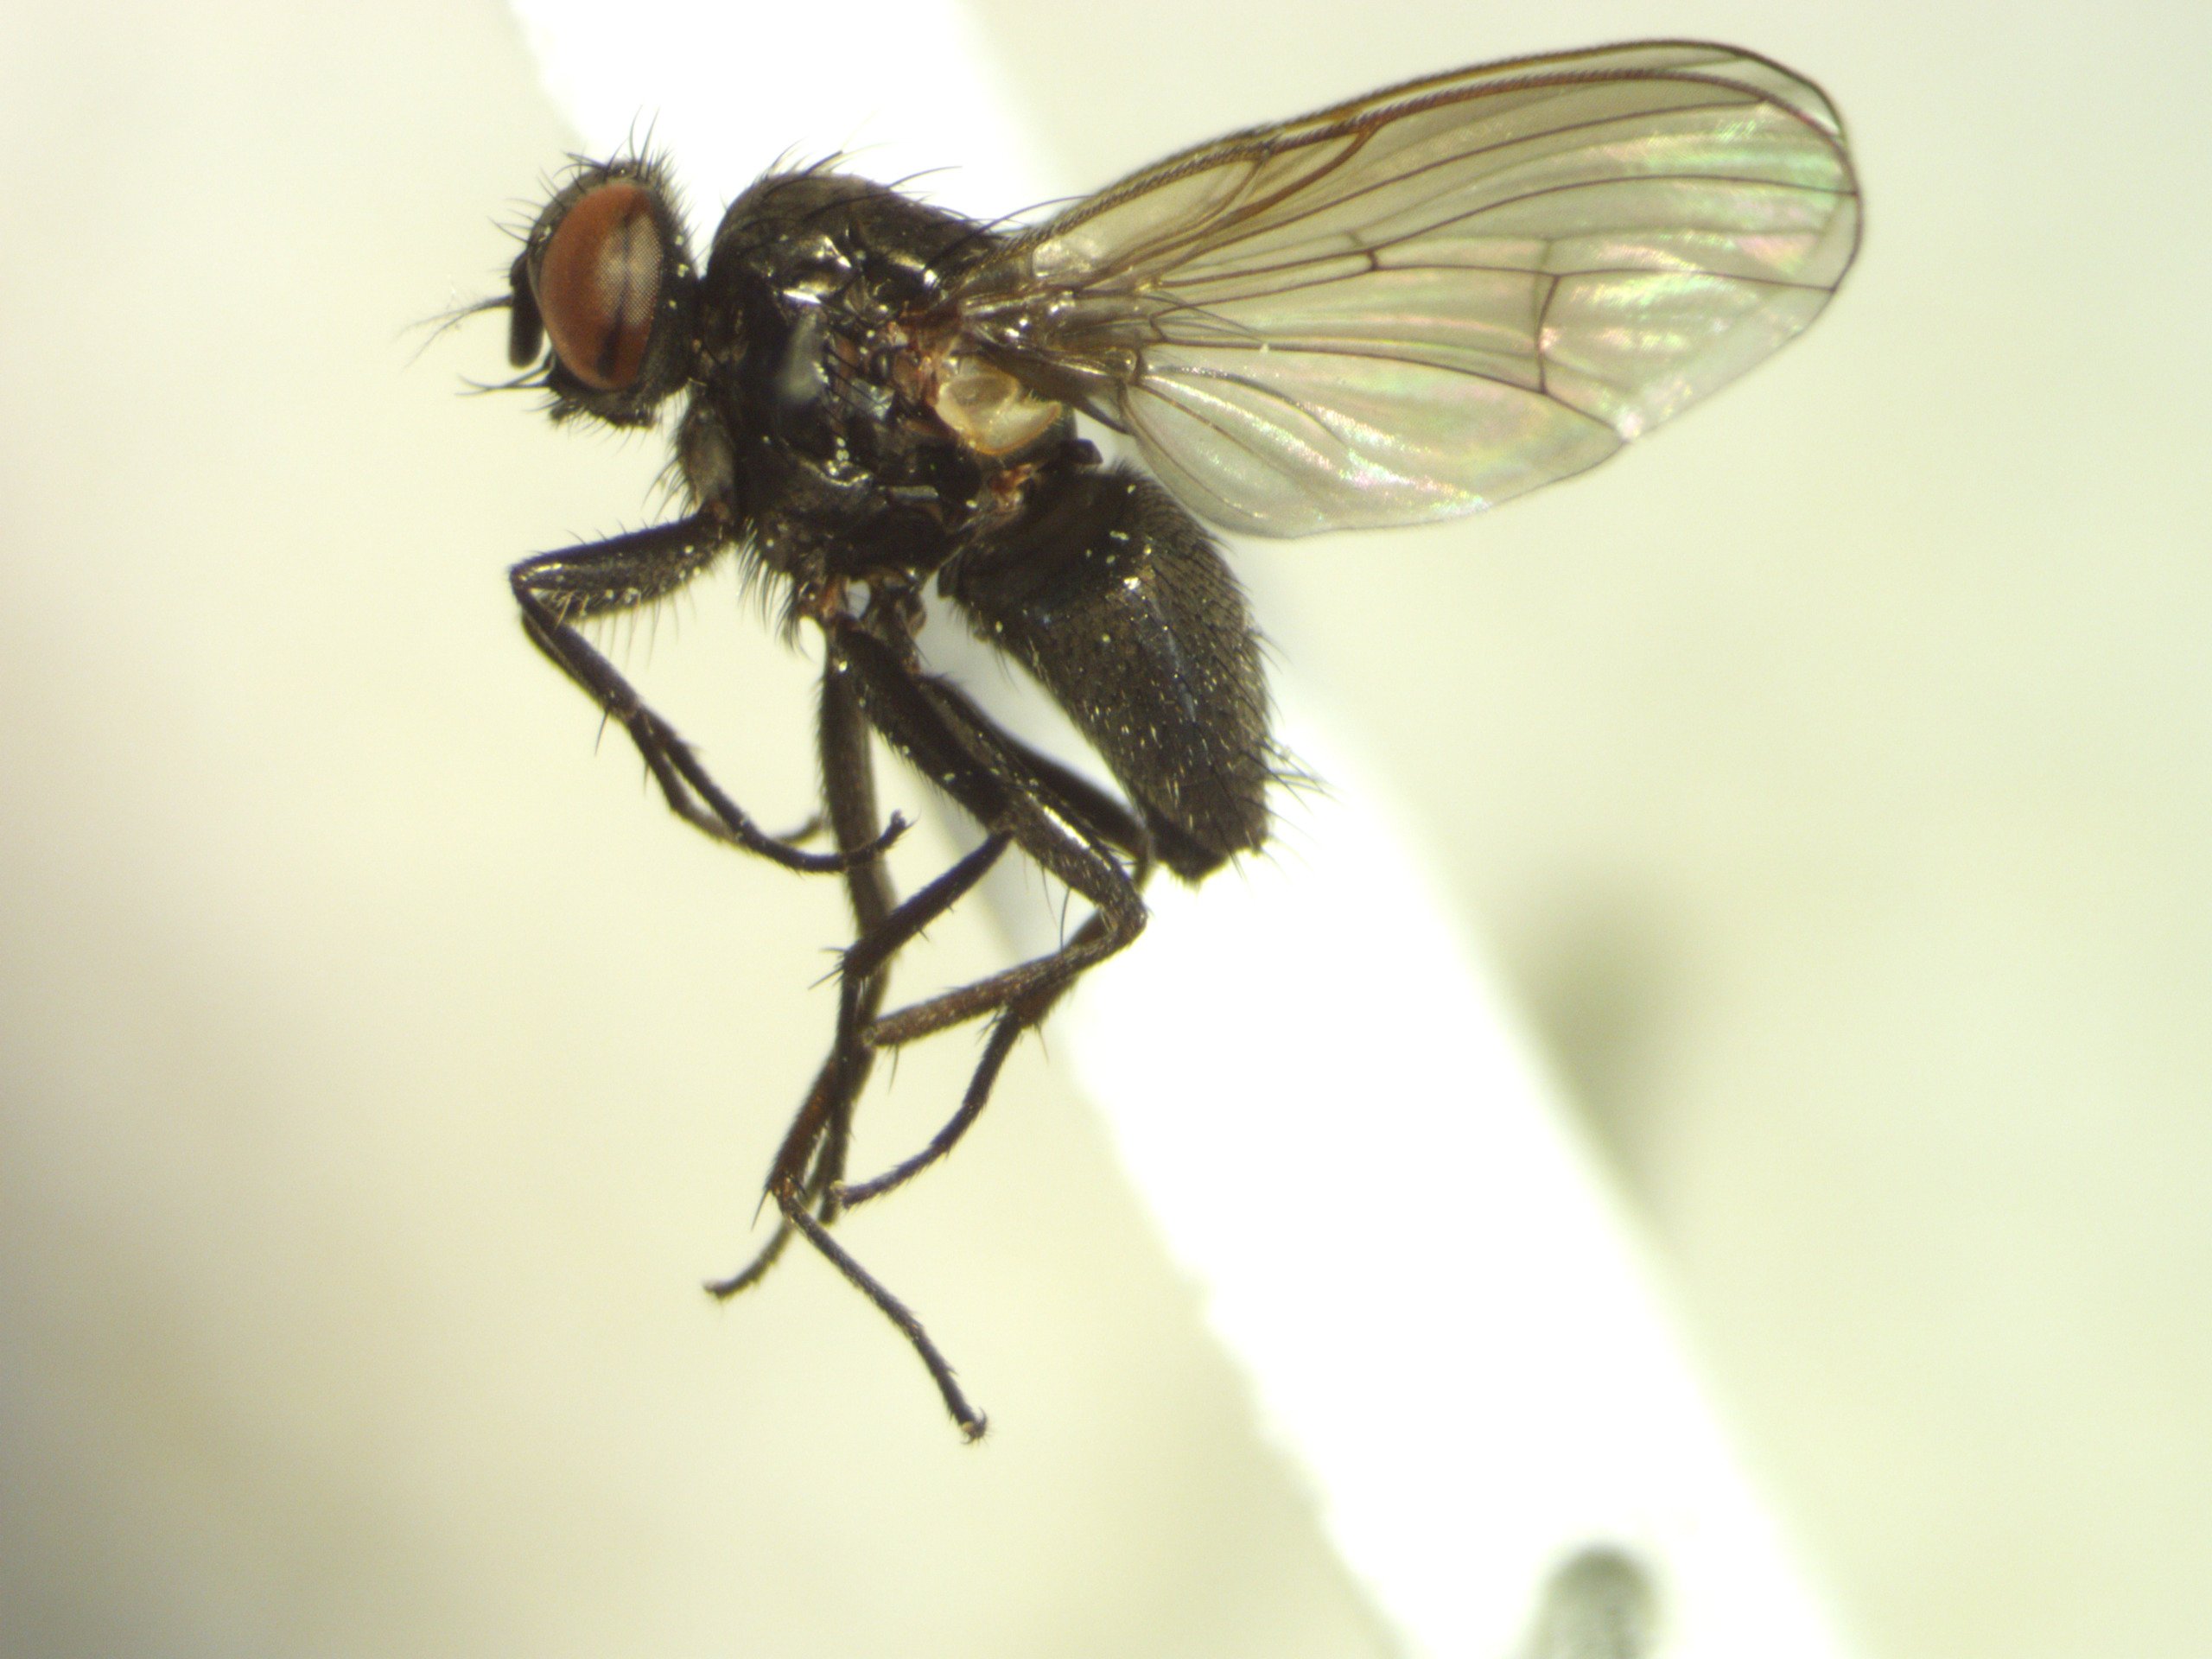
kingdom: Animalia
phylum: Arthropoda
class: Insecta
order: Diptera
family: Muscidae
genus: Hebecnema
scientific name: Hebecnema nigra
